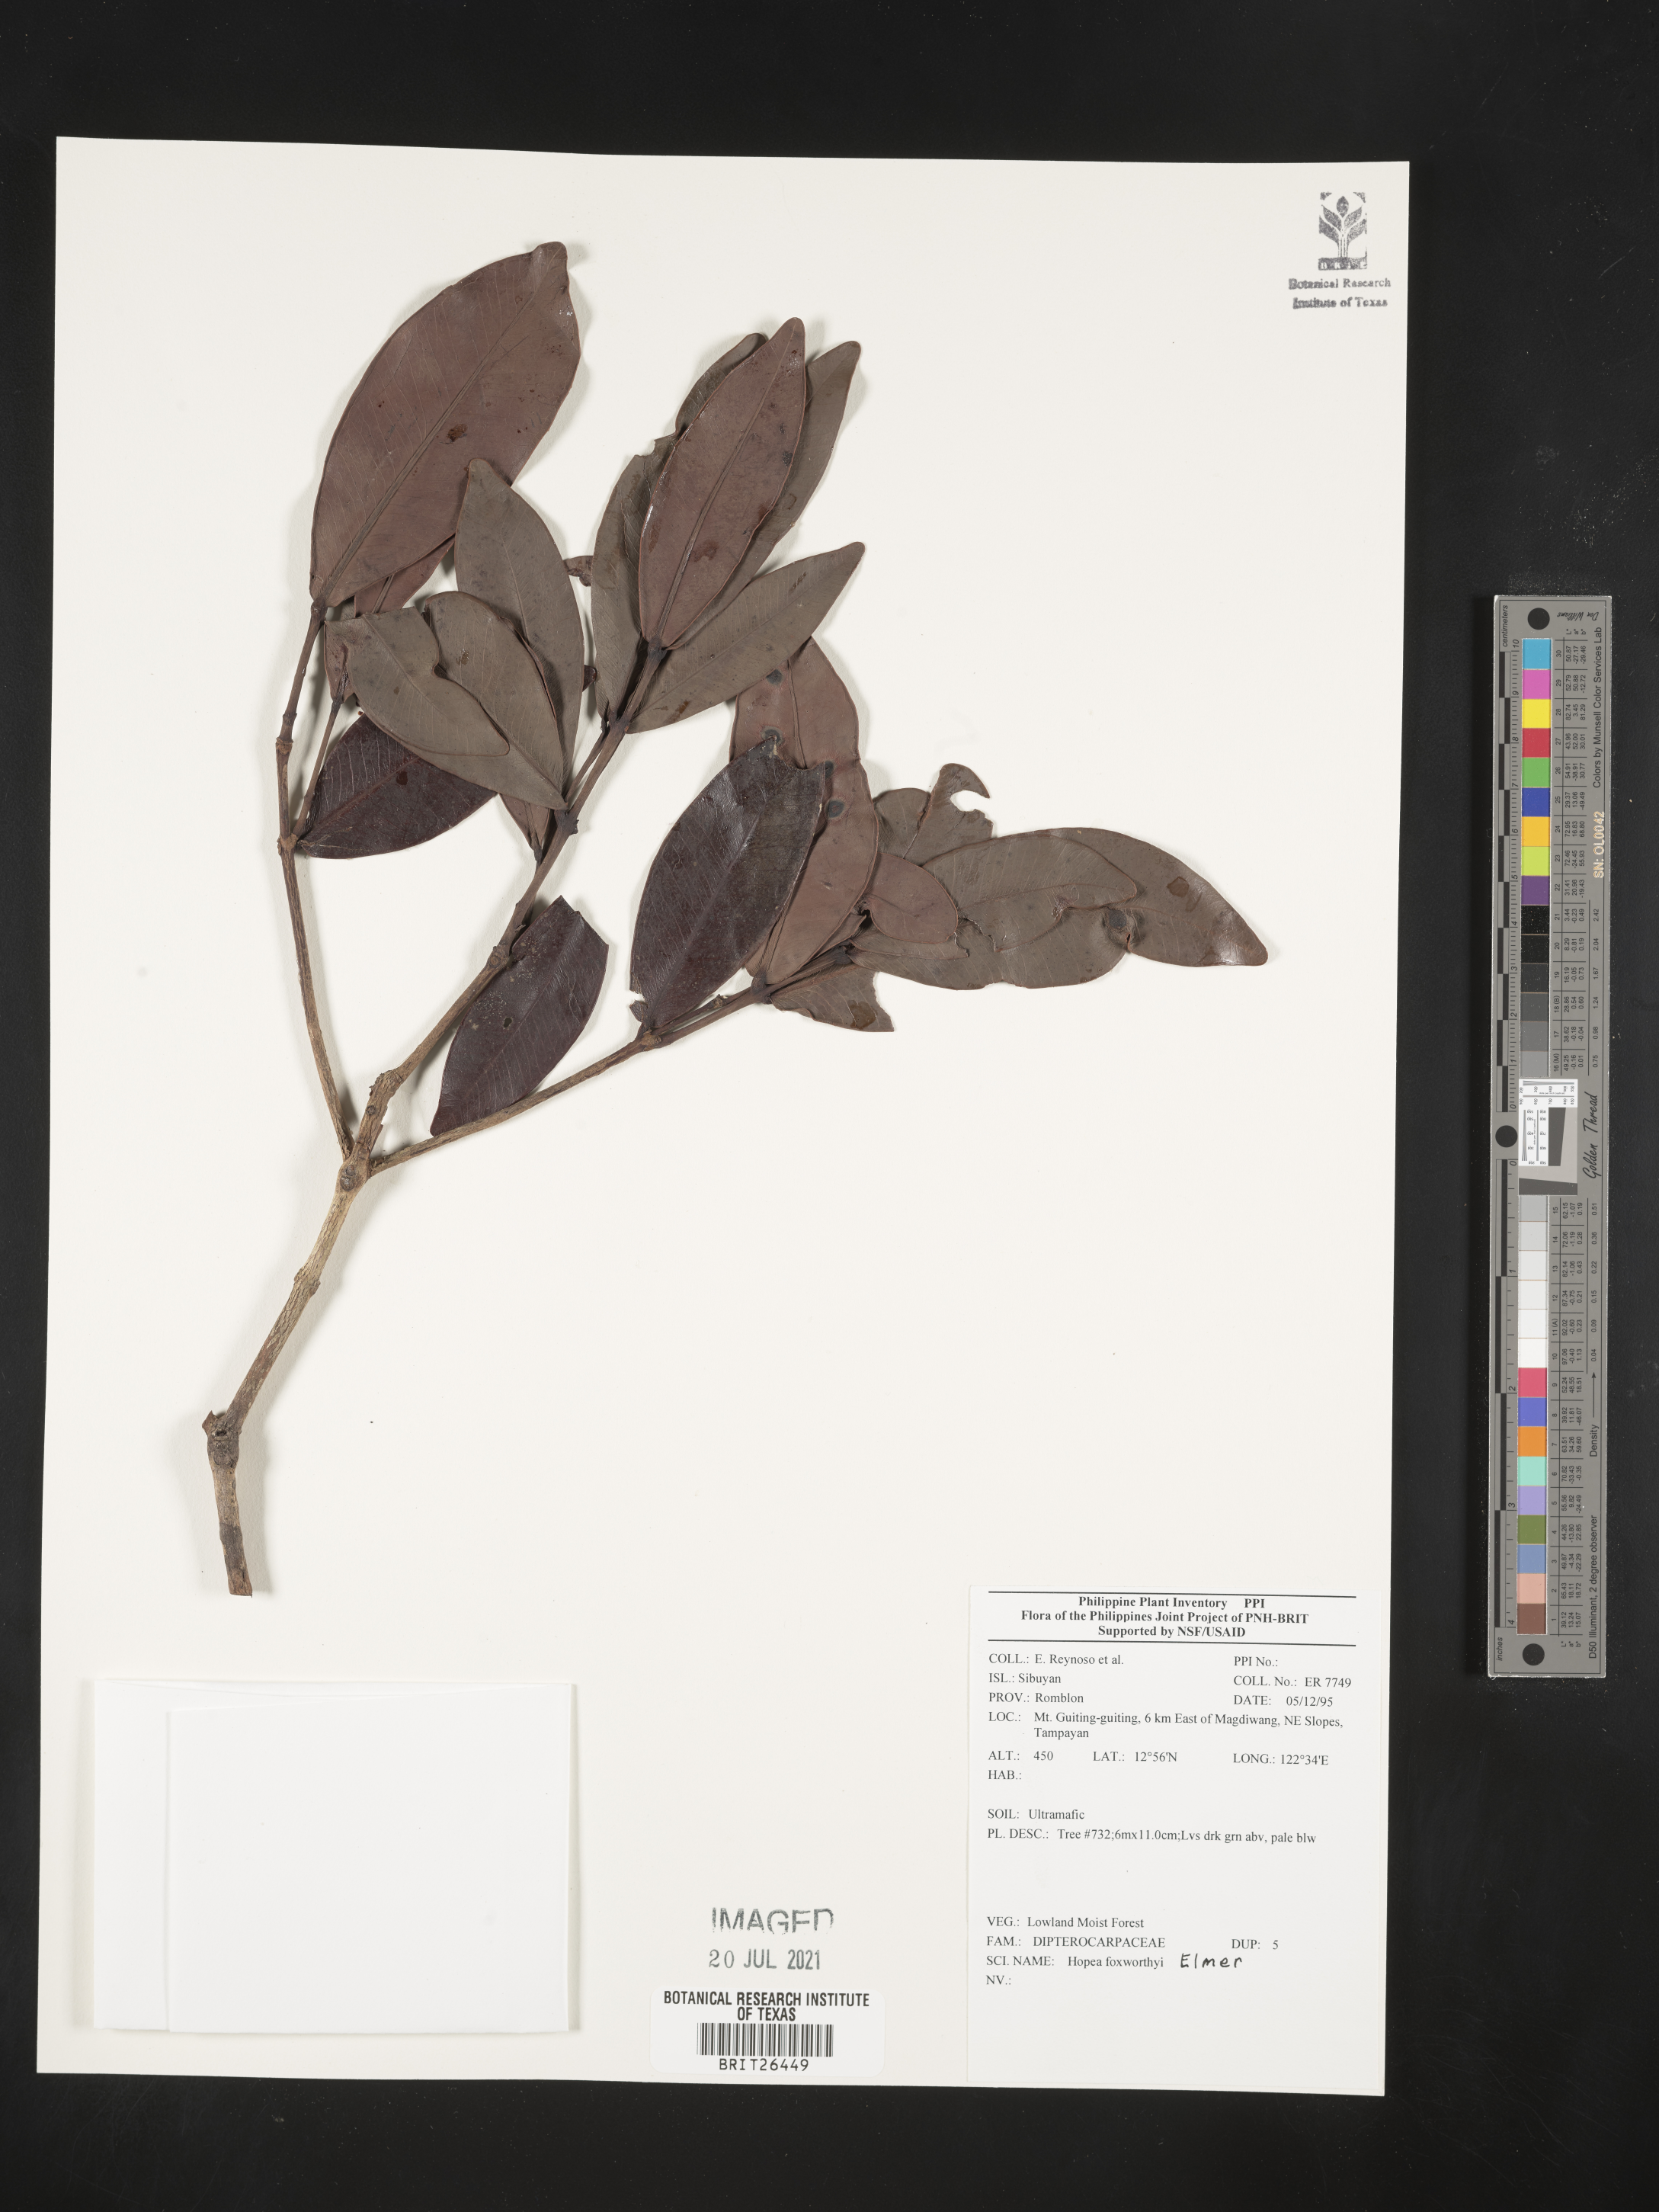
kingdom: Plantae
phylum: Tracheophyta
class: Magnoliopsida
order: Malvales
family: Dipterocarpaceae
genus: Hopea
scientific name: Hopea foxworthyi
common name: Dalingdingan
